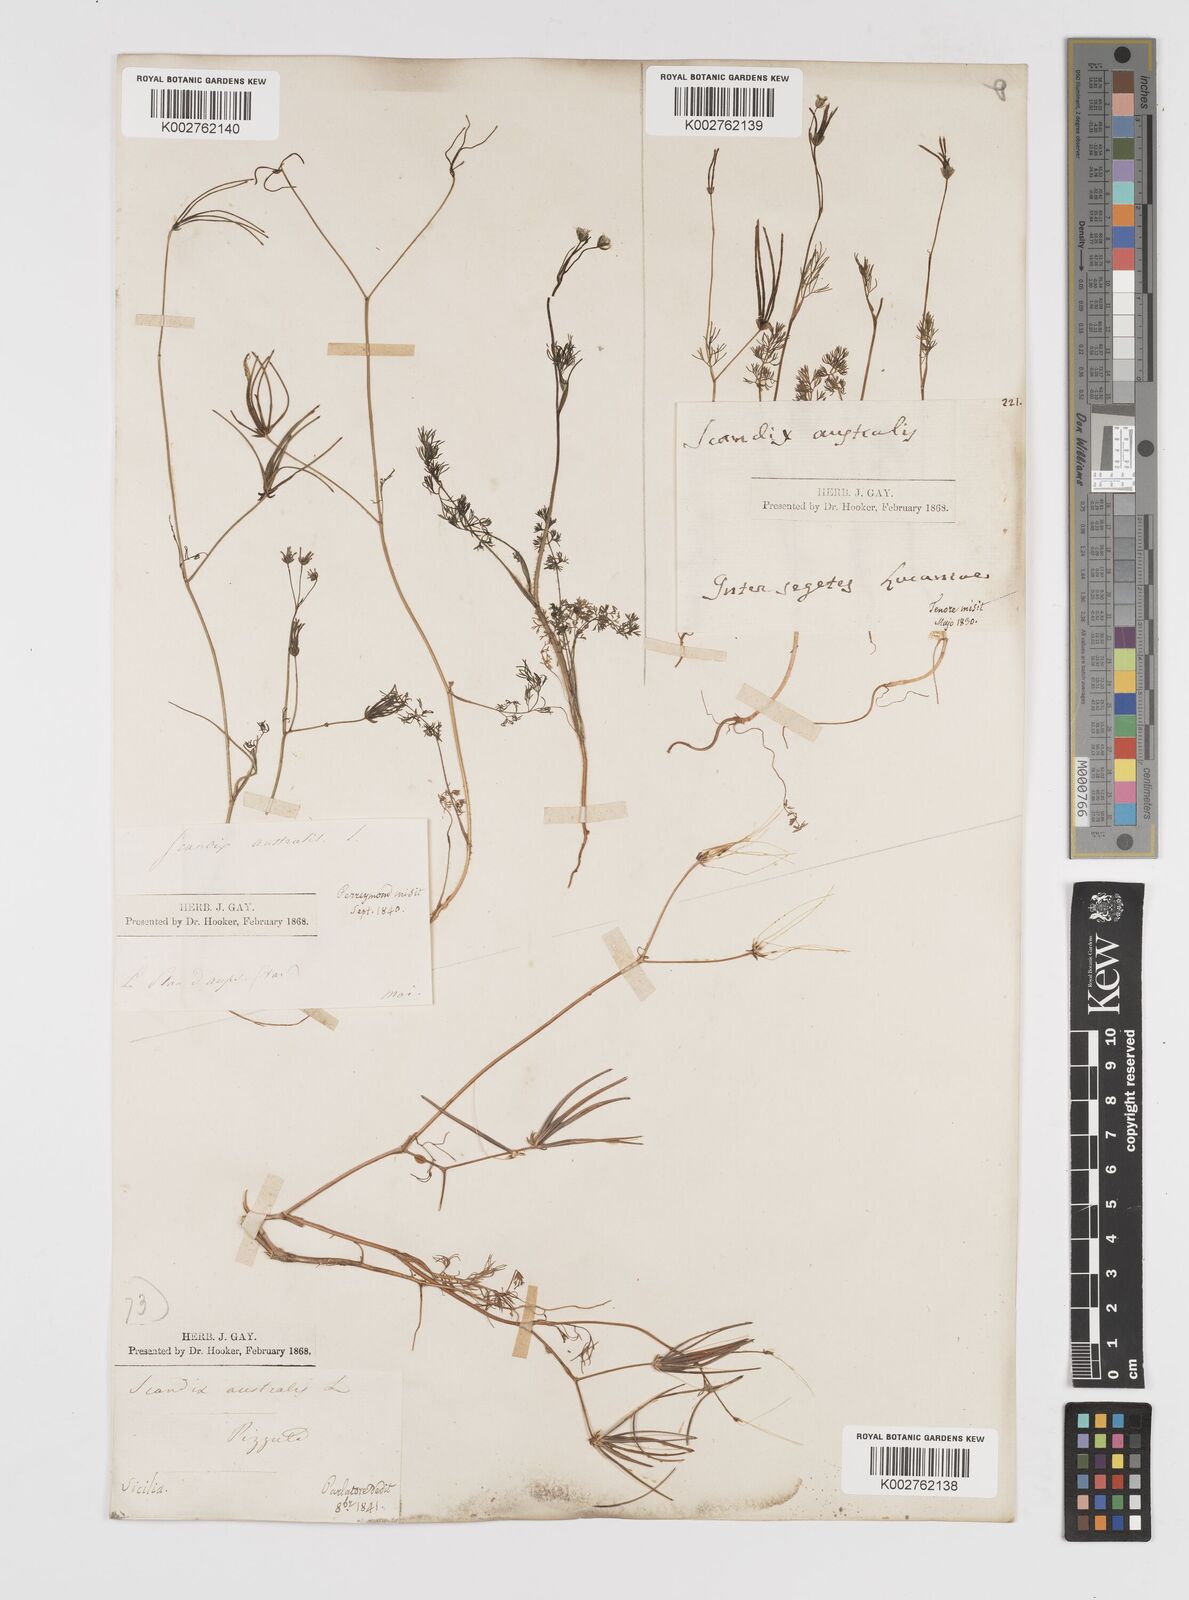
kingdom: Plantae
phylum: Tracheophyta
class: Magnoliopsida
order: Apiales
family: Apiaceae
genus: Scandix
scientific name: Scandix australis
